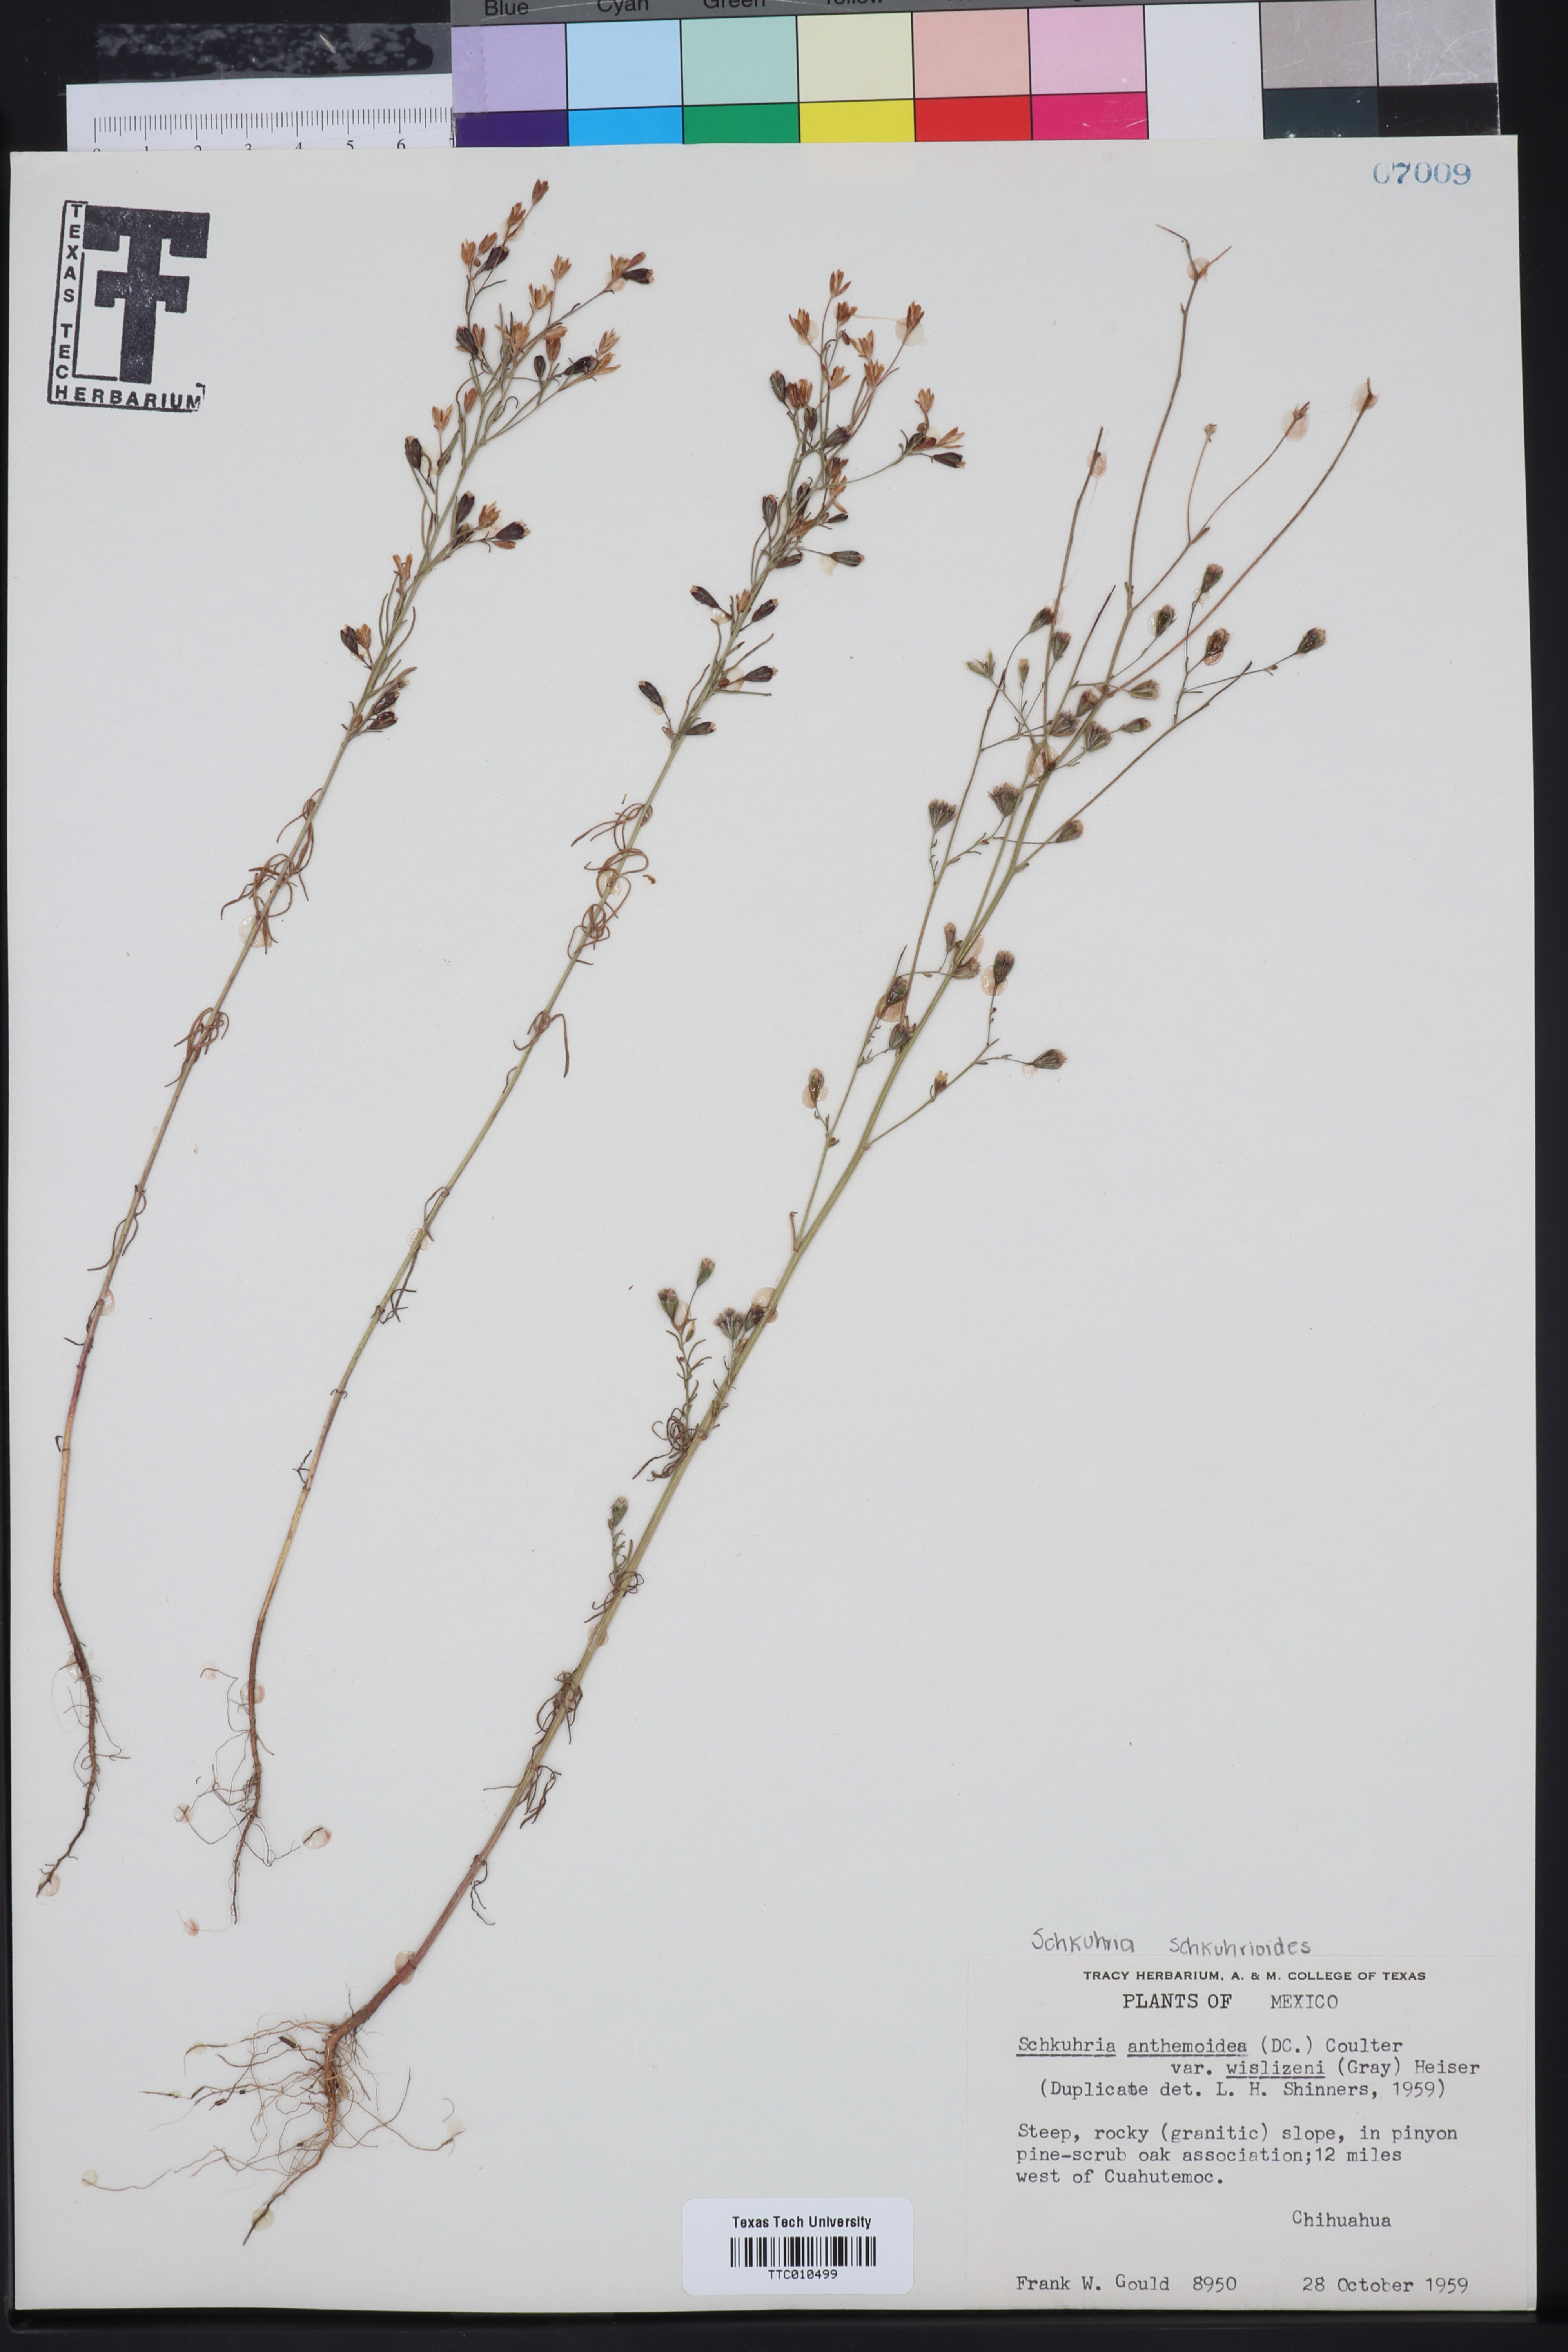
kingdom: Plantae
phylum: Tracheophyta
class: Magnoliopsida
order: Asterales
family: Asteraceae
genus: Schkuhria
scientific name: Schkuhria pinnata
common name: Dwarf marigold
